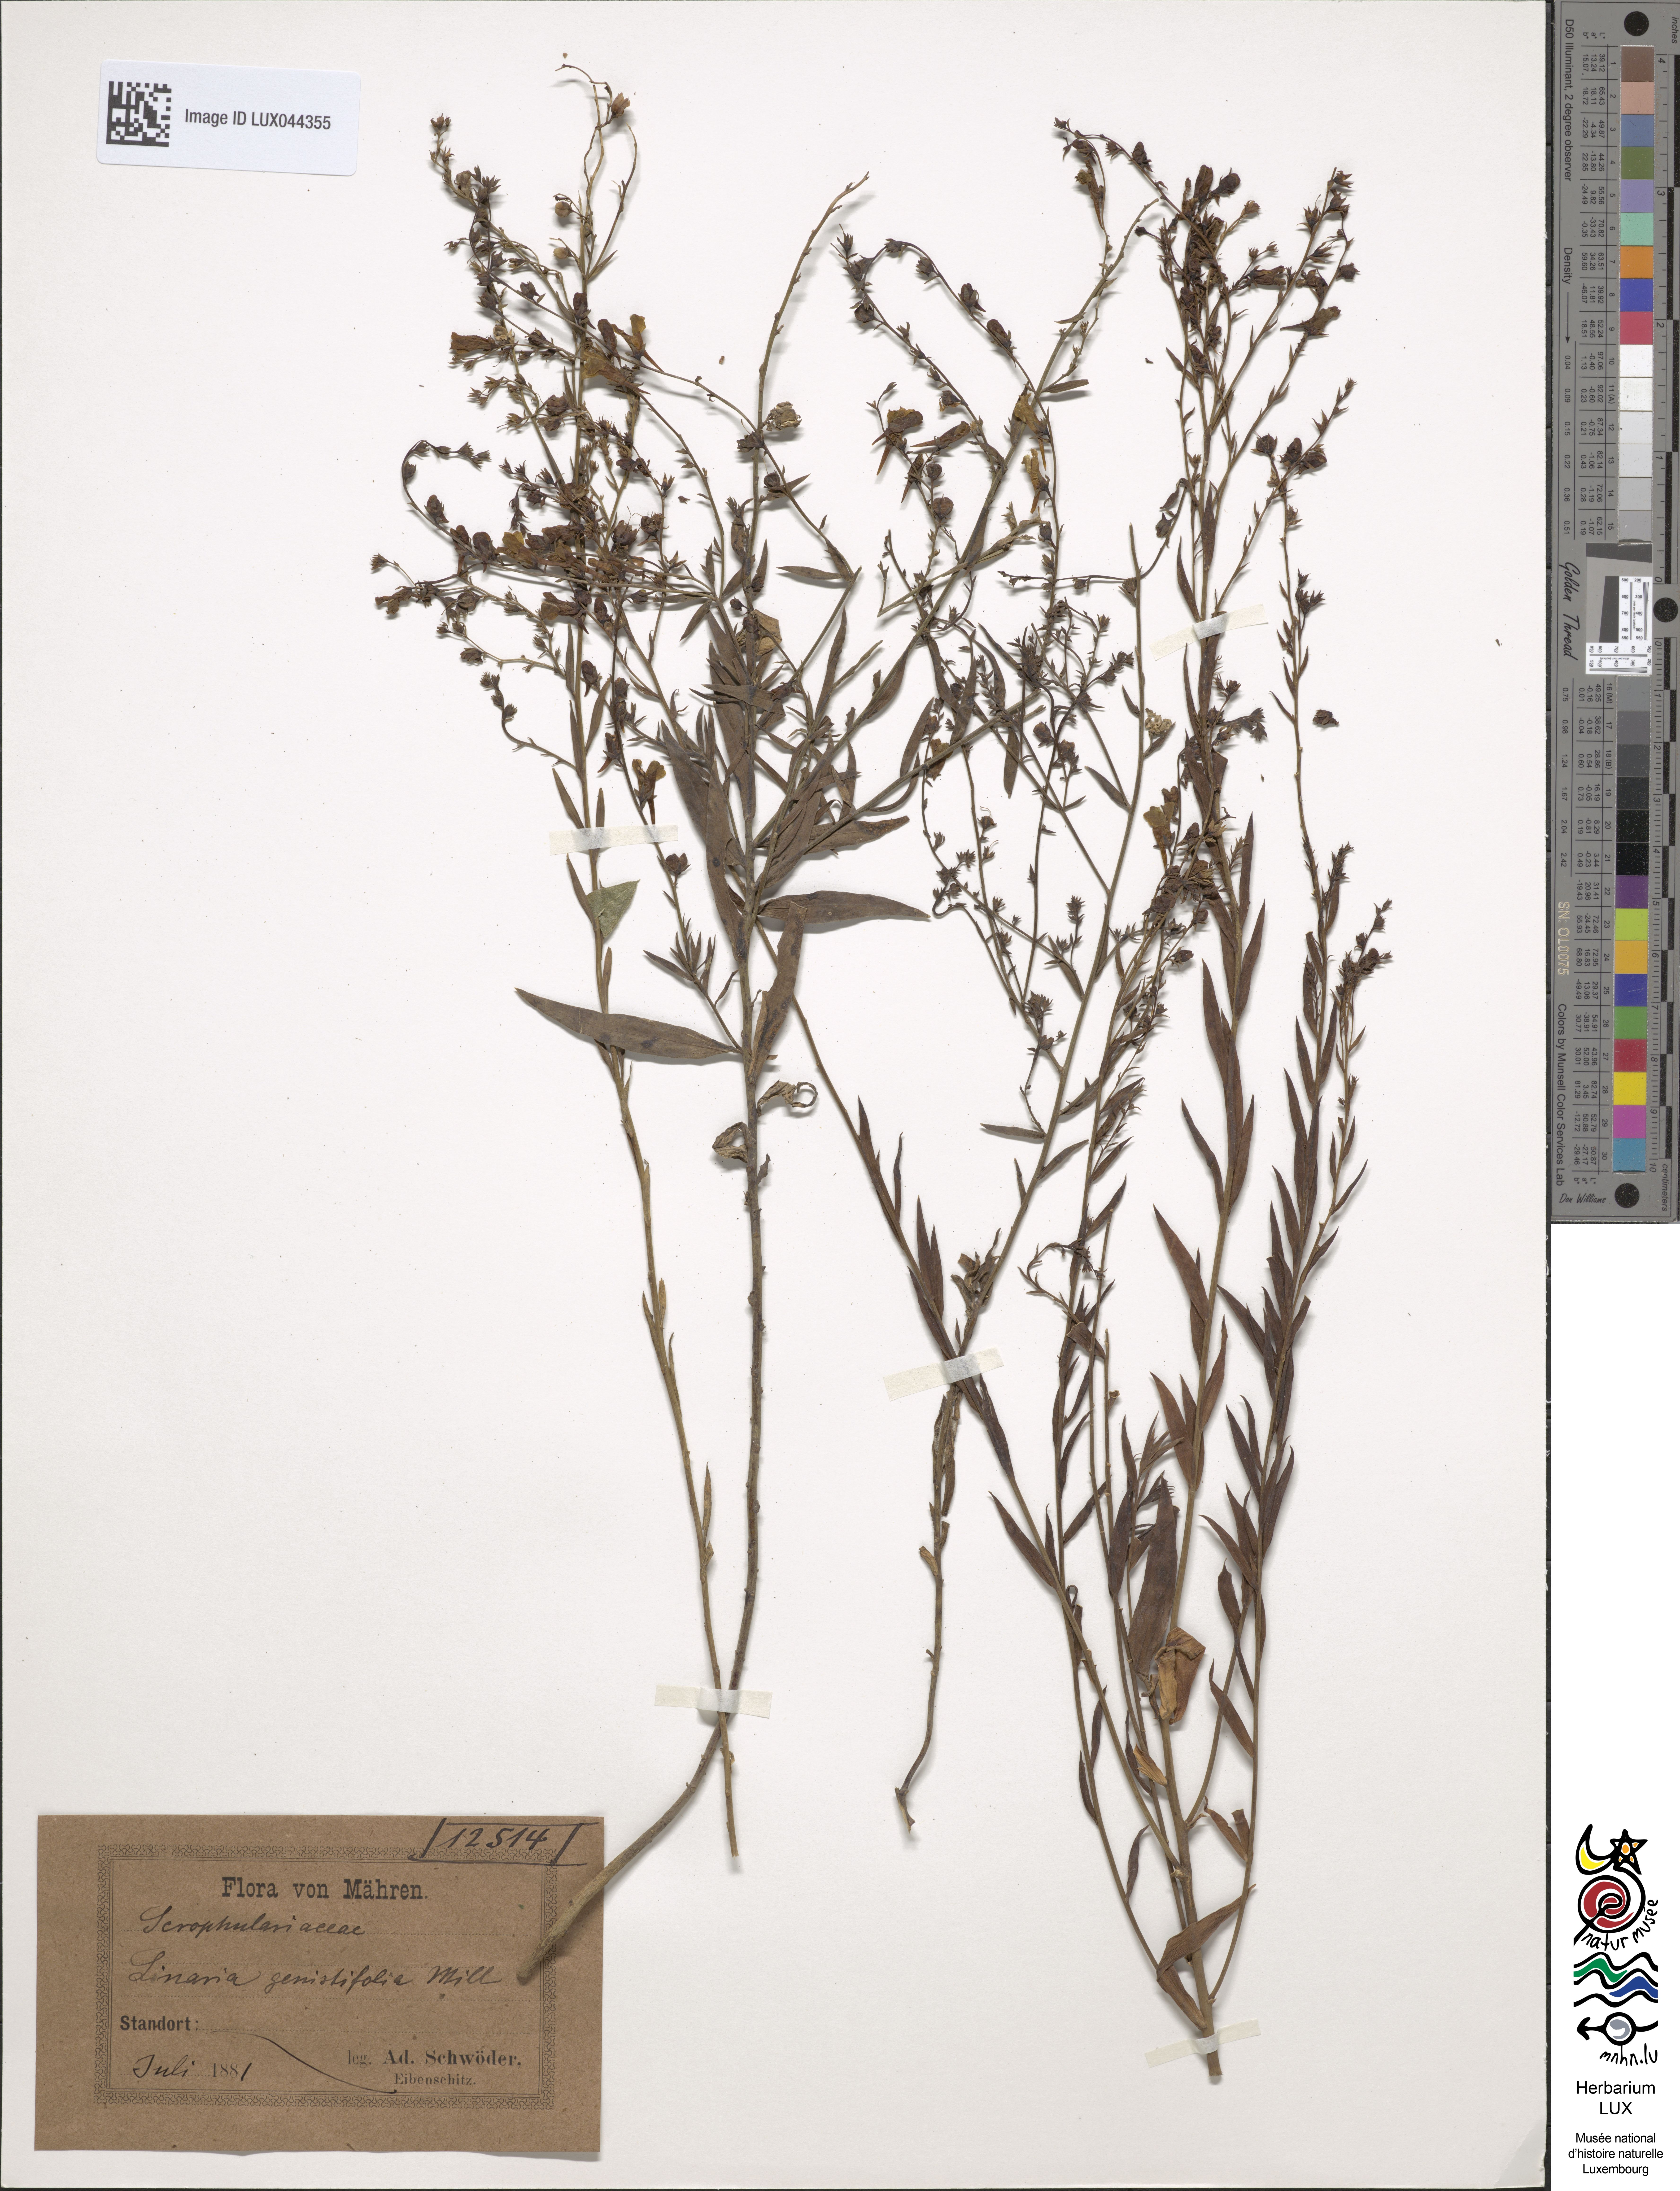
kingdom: Plantae
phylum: Tracheophyta
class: Magnoliopsida
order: Lamiales
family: Plantaginaceae
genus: Linaria
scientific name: Linaria genistifolia
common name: Broomleaf toadflax
